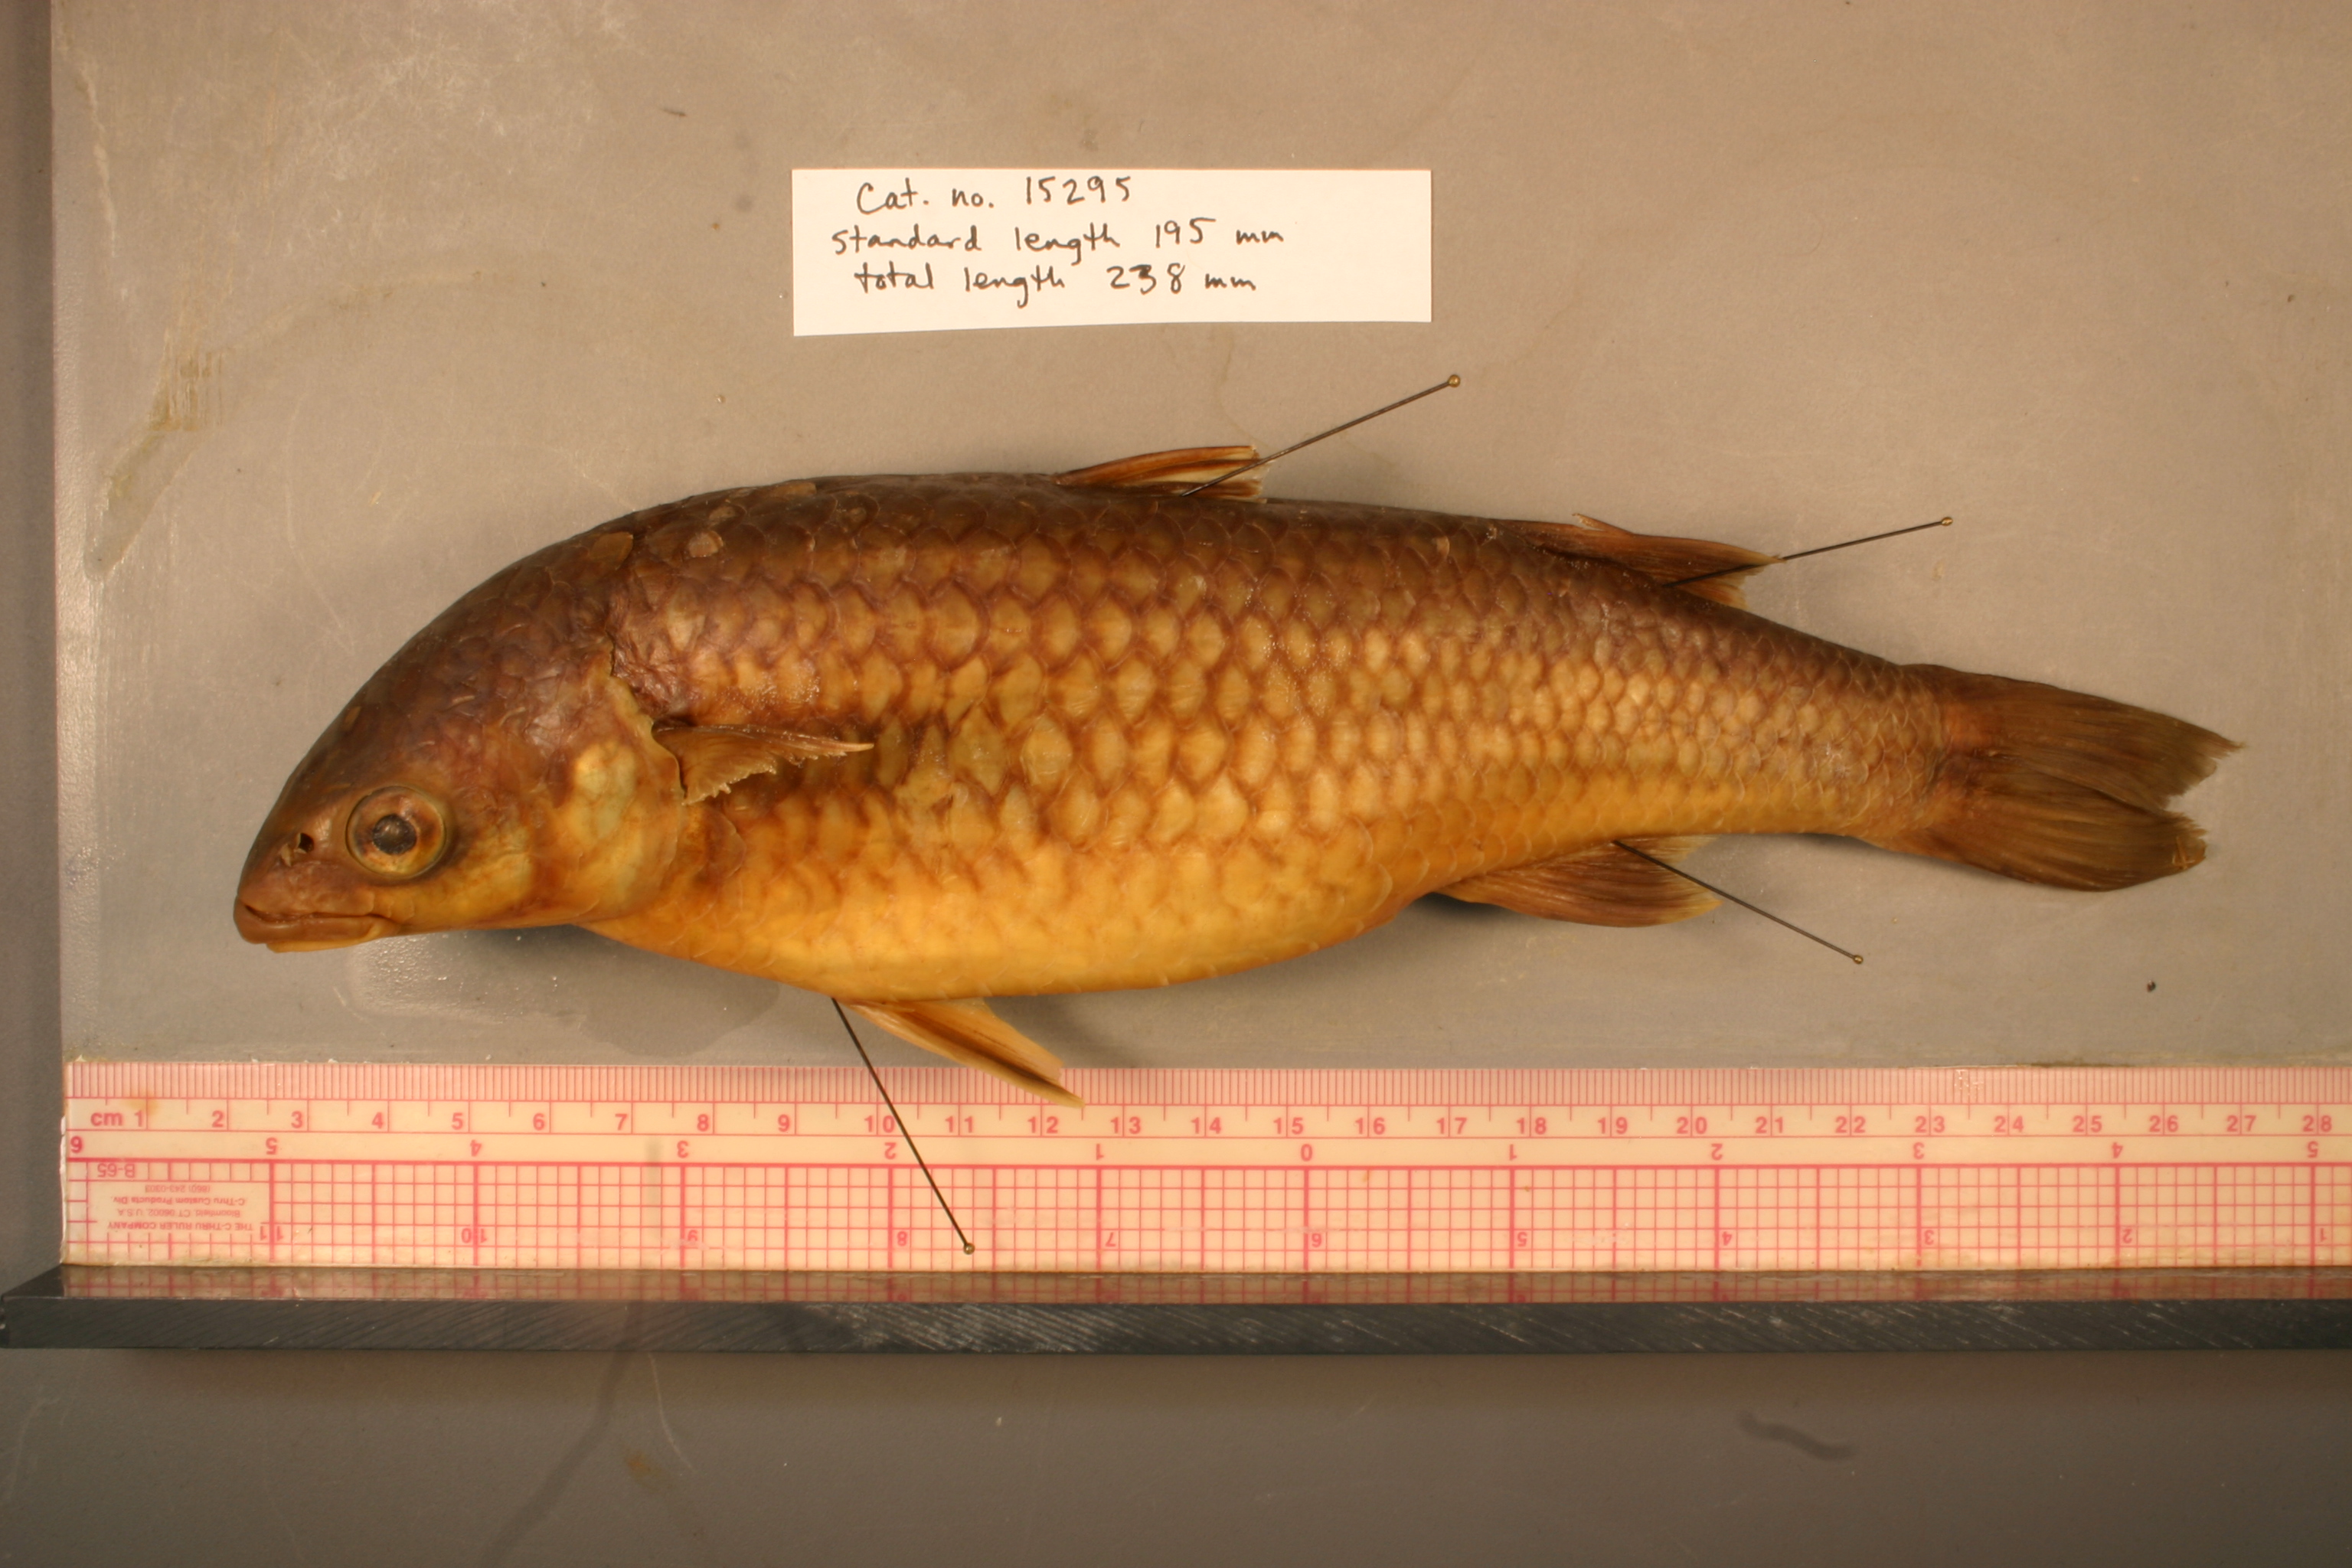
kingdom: Animalia
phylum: Chordata
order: Mugiliformes
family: Mugilidae
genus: Dajaus
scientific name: Dajaus monticola
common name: Mountain mullet
